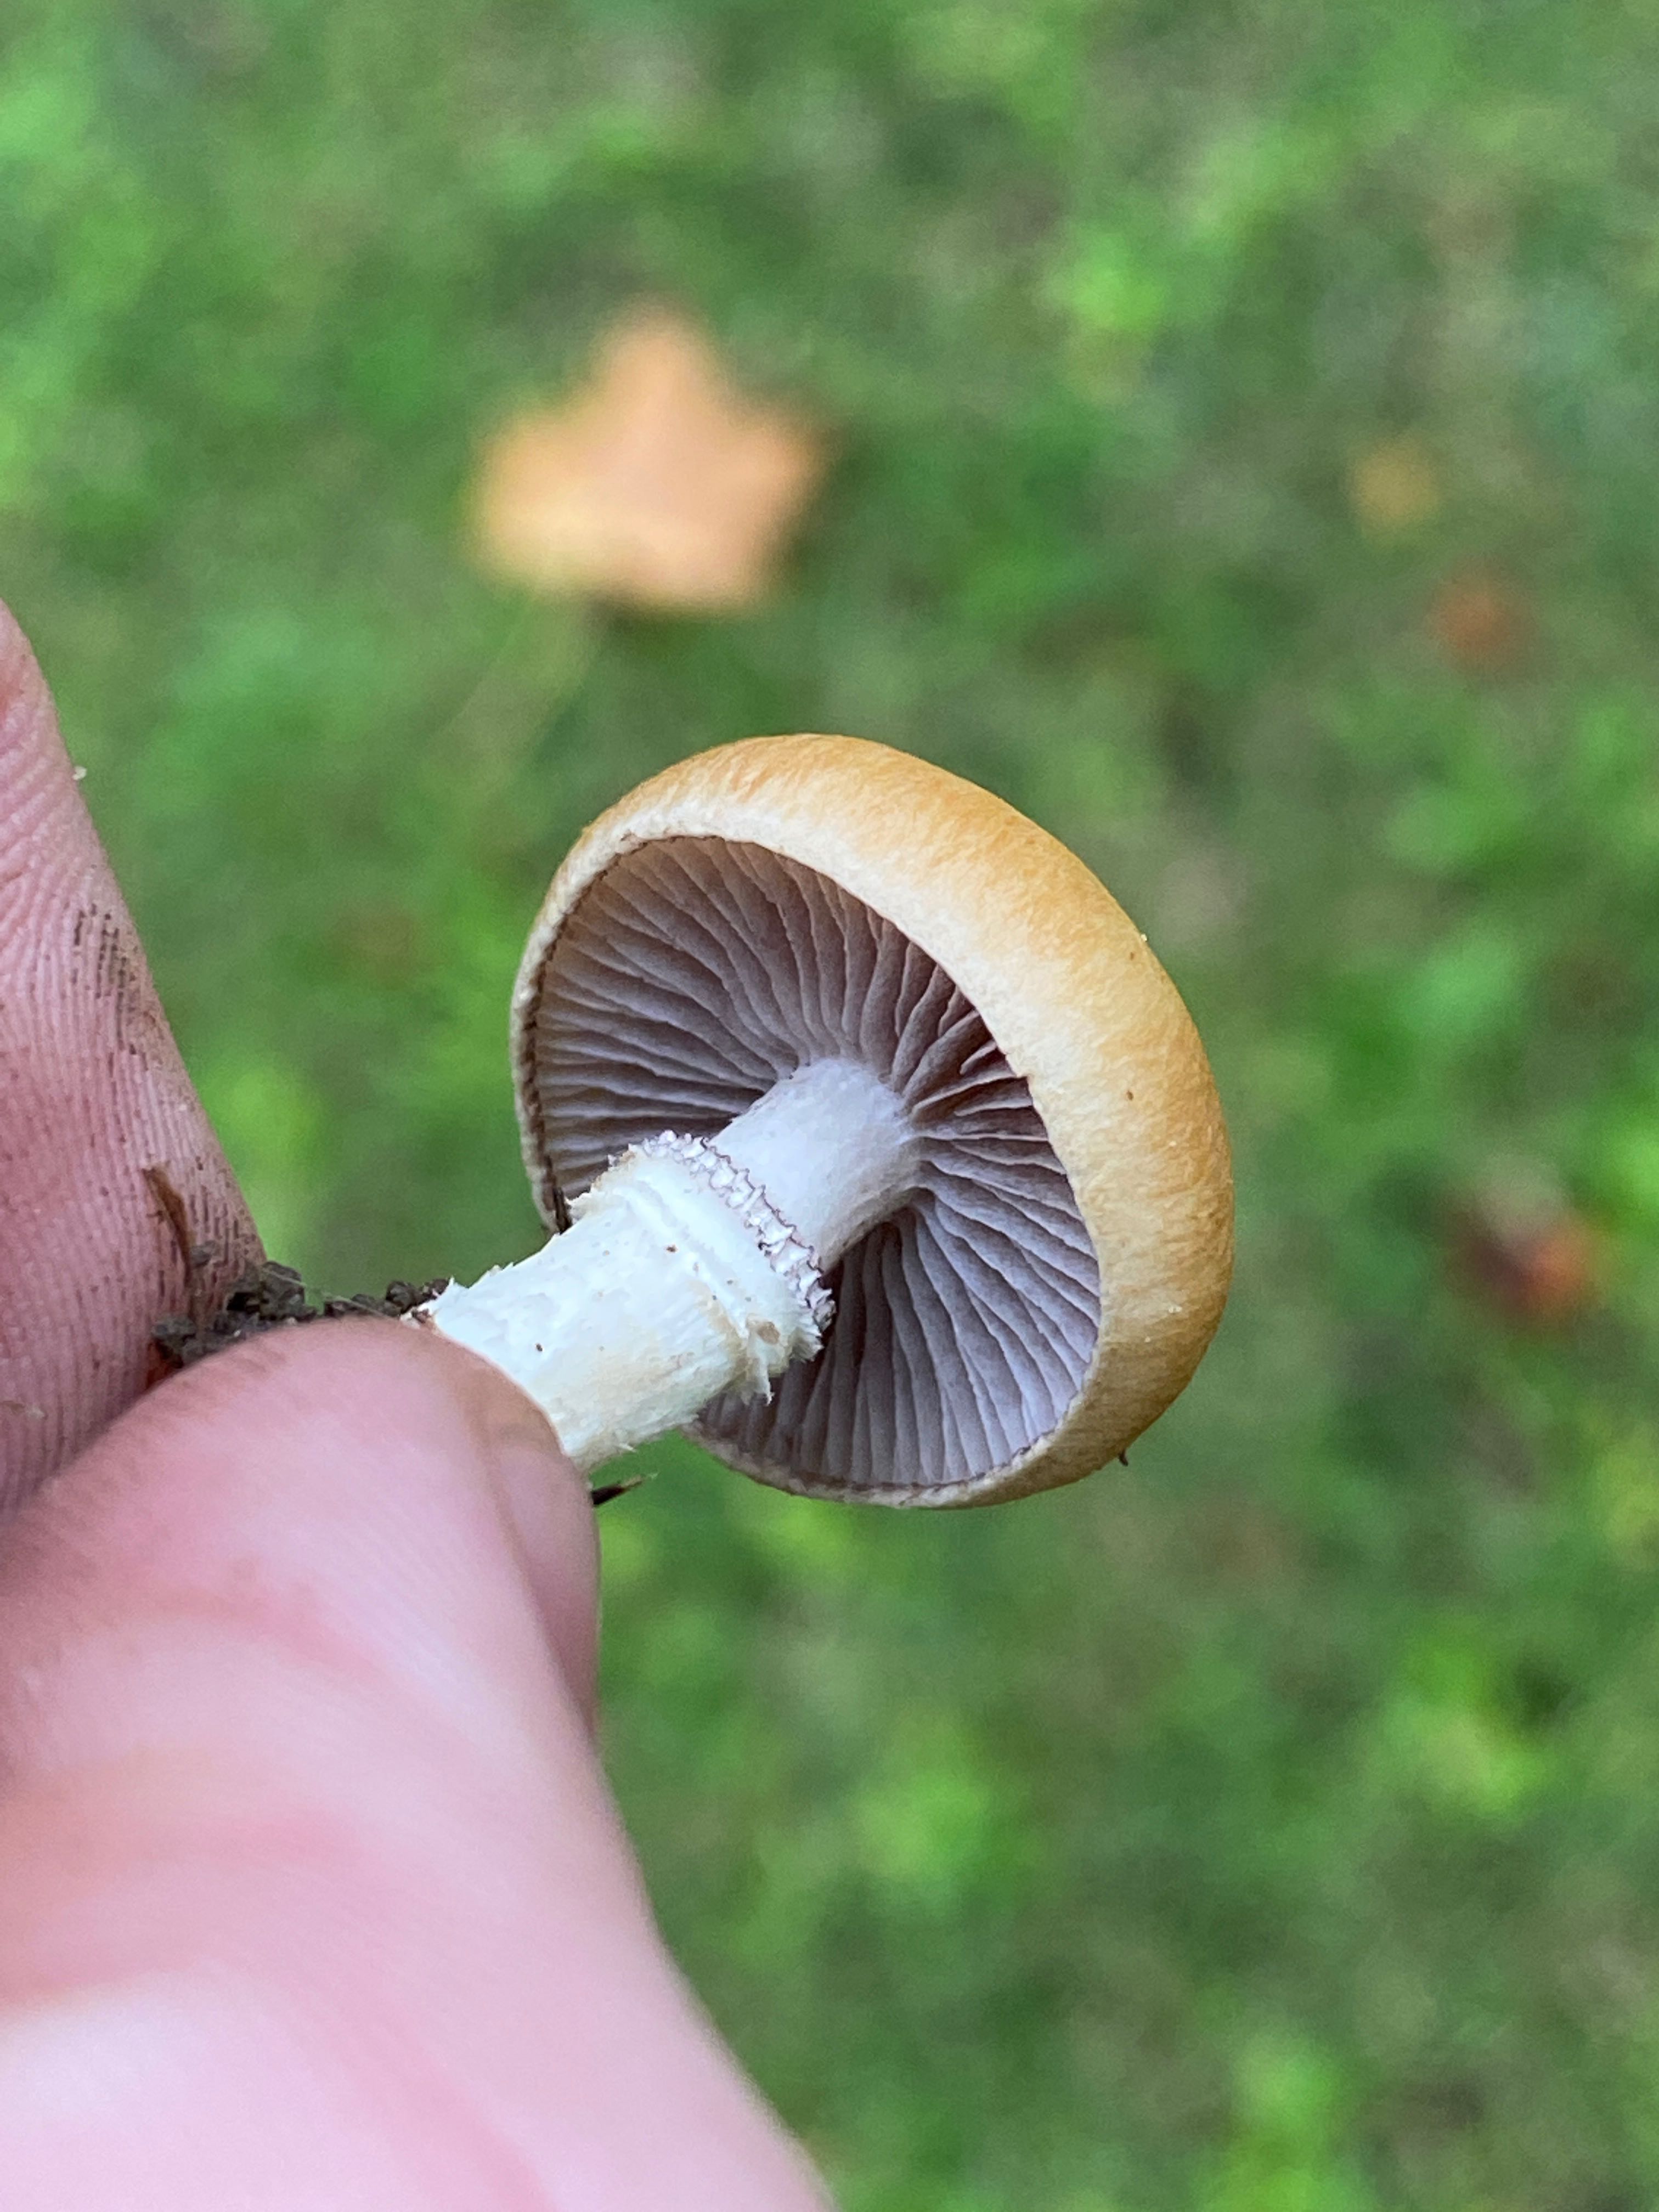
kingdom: Fungi
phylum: Basidiomycota
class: Agaricomycetes
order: Agaricales
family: Hymenogastraceae
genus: Psilocybe
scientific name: Psilocybe coronilla
